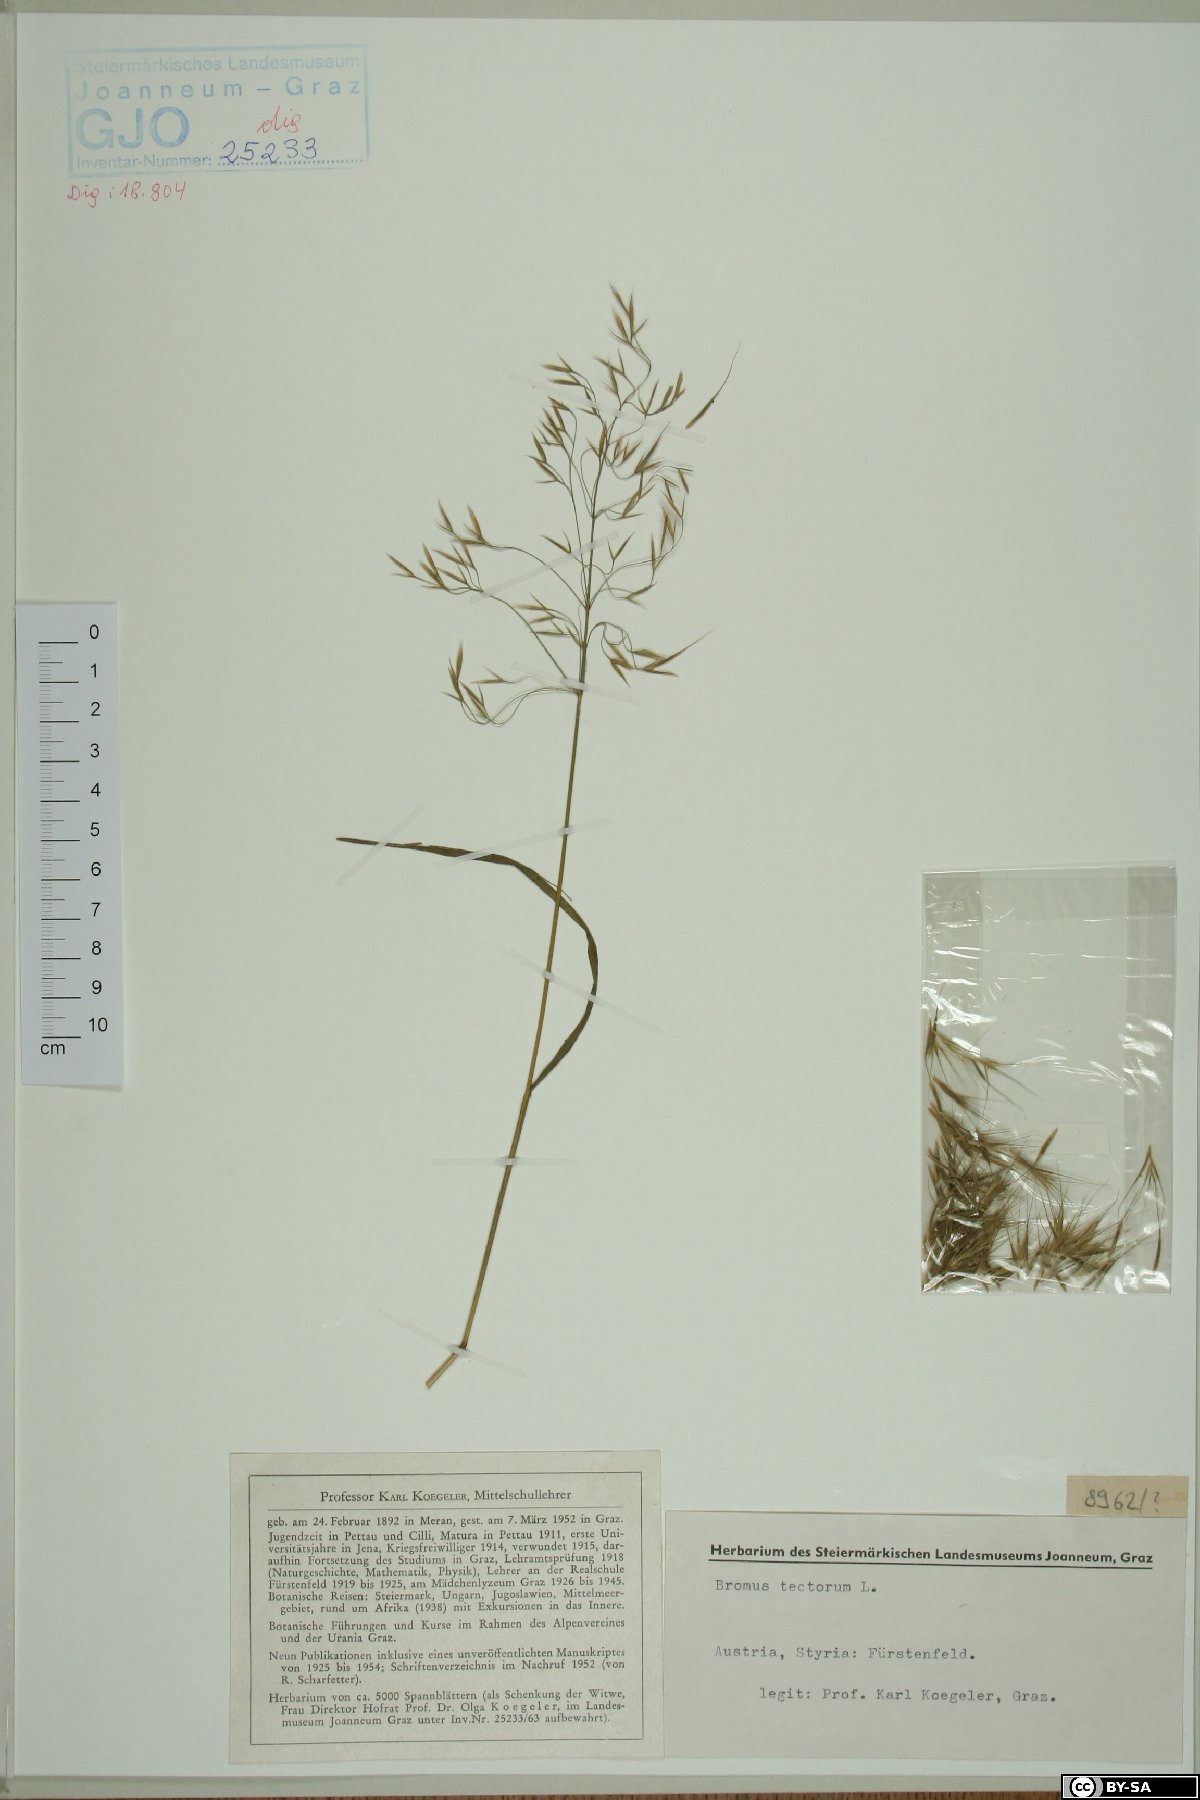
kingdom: Plantae
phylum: Tracheophyta
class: Liliopsida
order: Poales
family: Poaceae
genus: Bromus
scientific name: Bromus tectorum
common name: Cheatgrass
